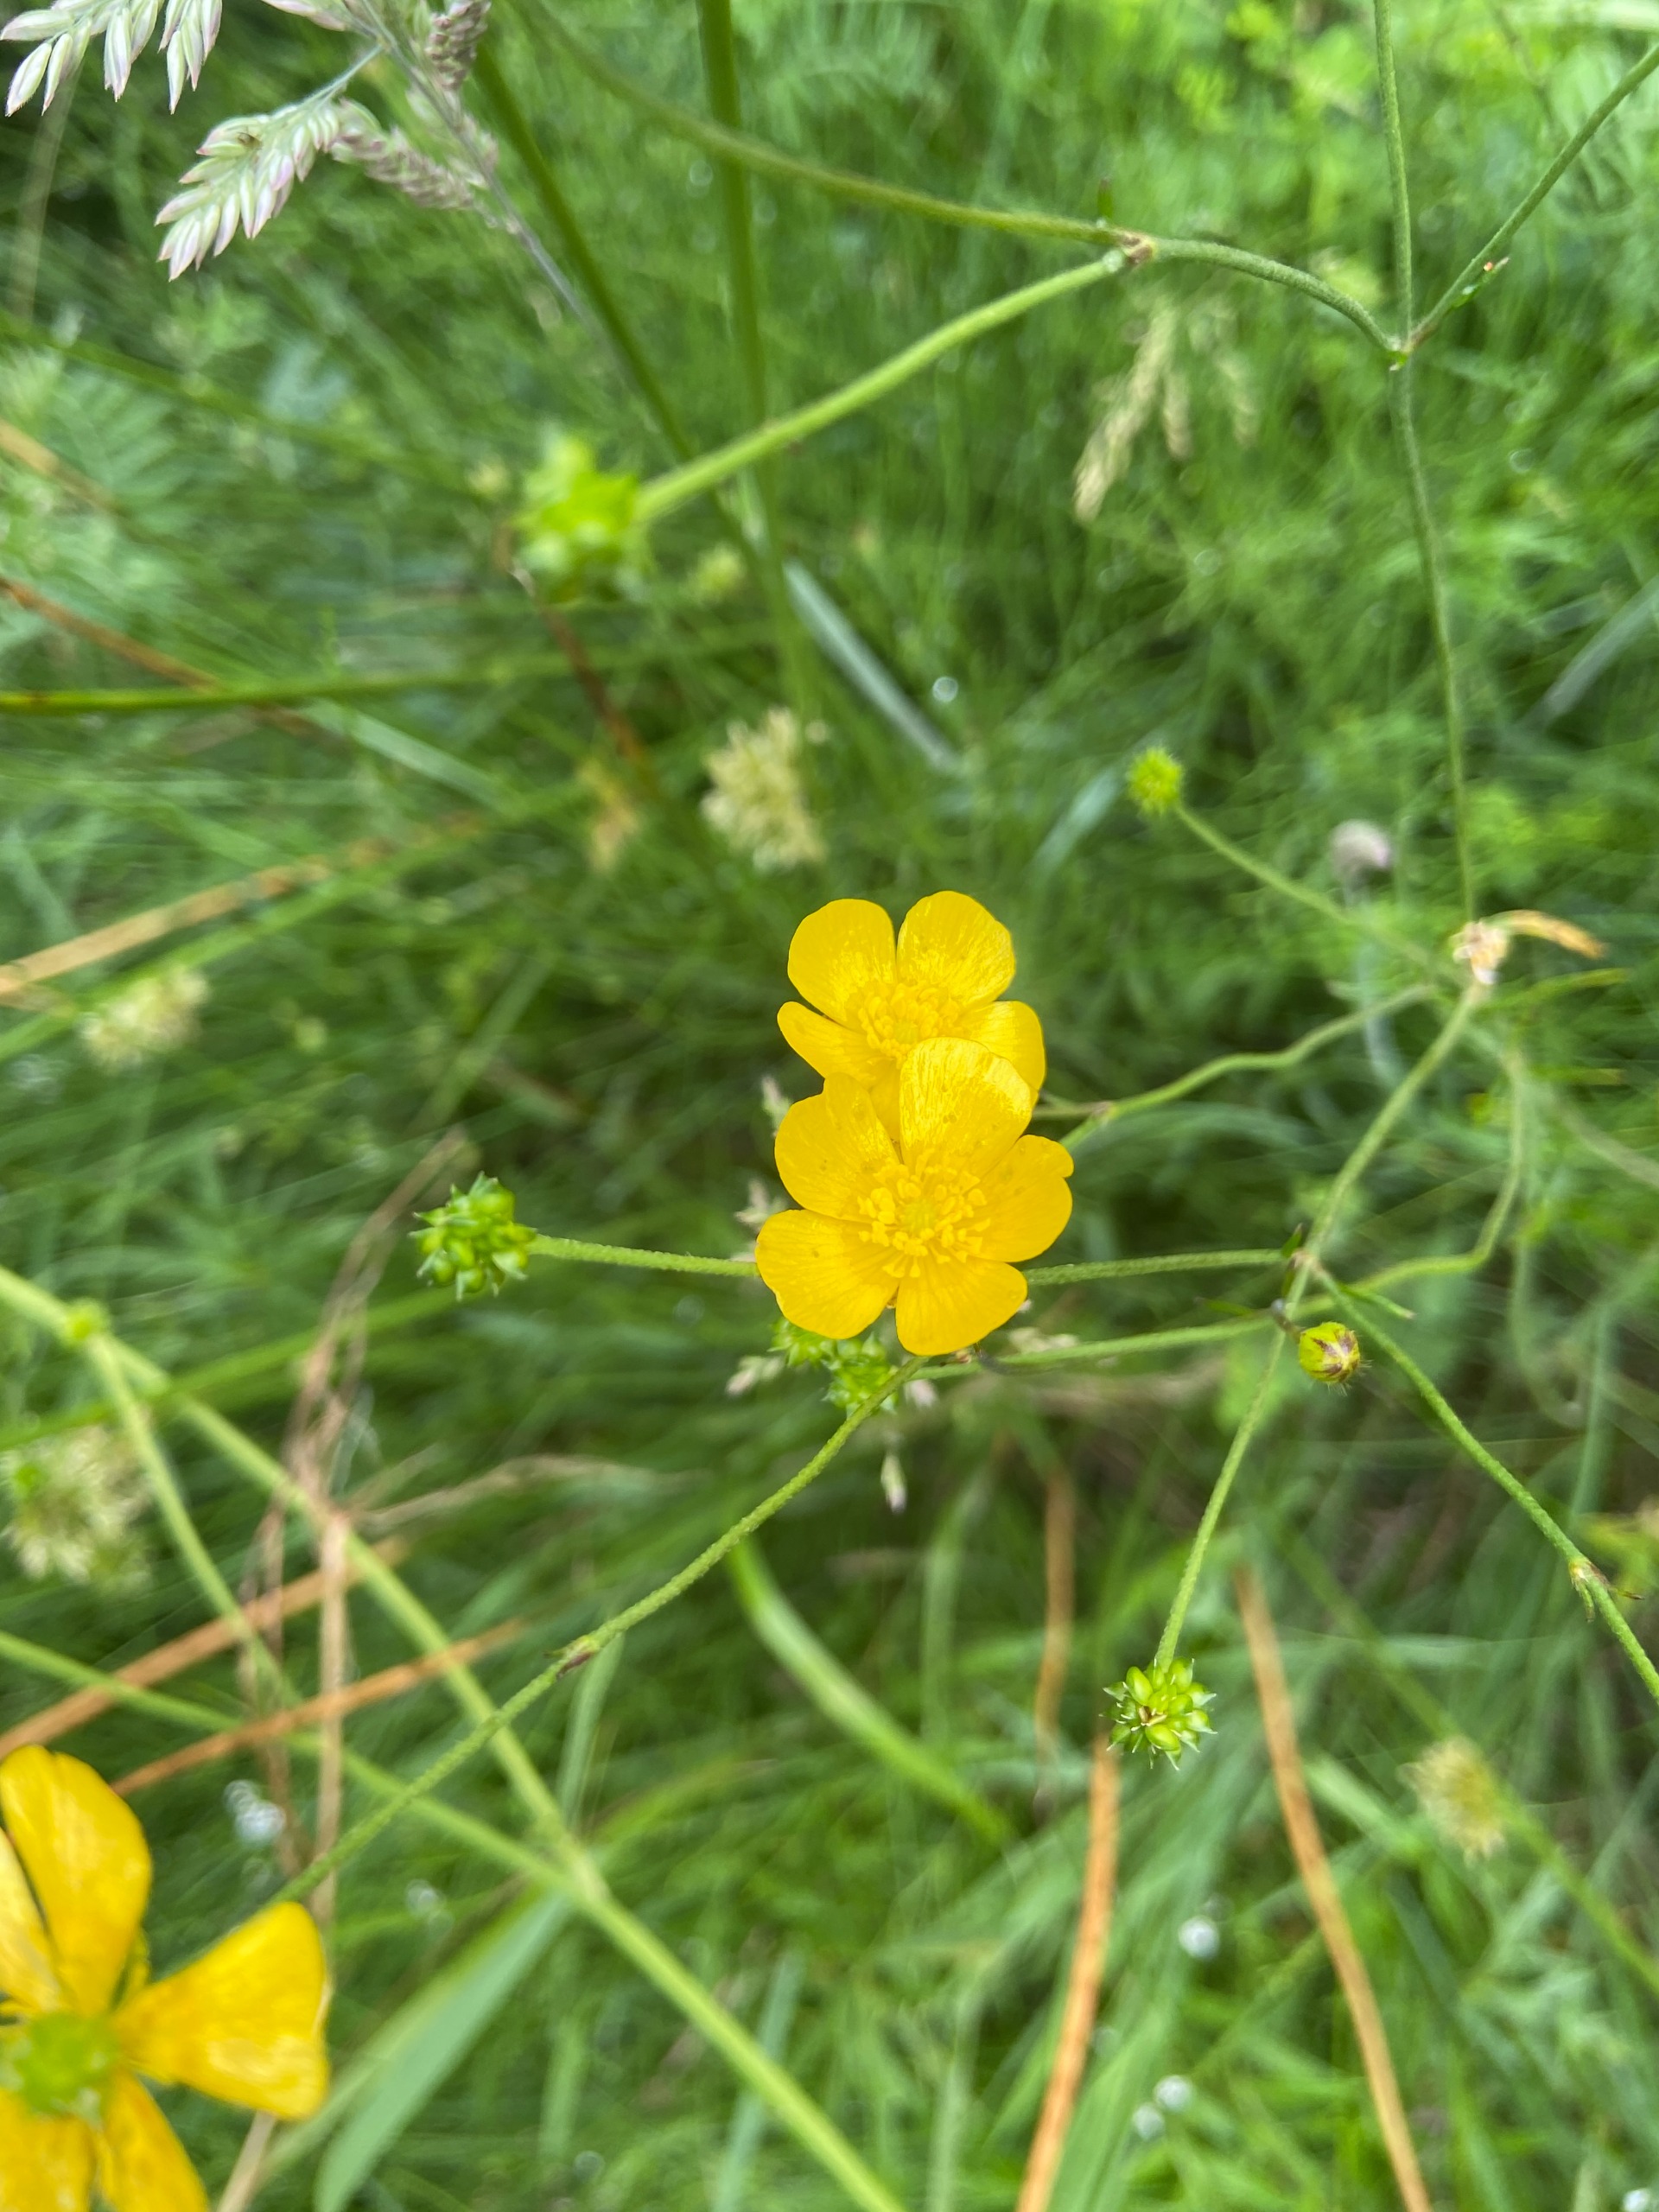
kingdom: Plantae
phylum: Tracheophyta
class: Magnoliopsida
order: Ranunculales
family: Ranunculaceae
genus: Ranunculus
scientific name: Ranunculus acris
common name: Bidende ranunkel
